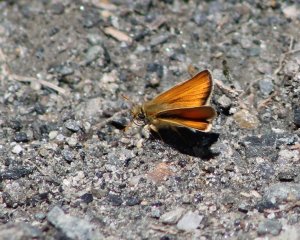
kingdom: Animalia
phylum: Arthropoda
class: Insecta
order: Lepidoptera
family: Hesperiidae
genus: Thymelicus
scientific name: Thymelicus lineola
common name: European Skipper
